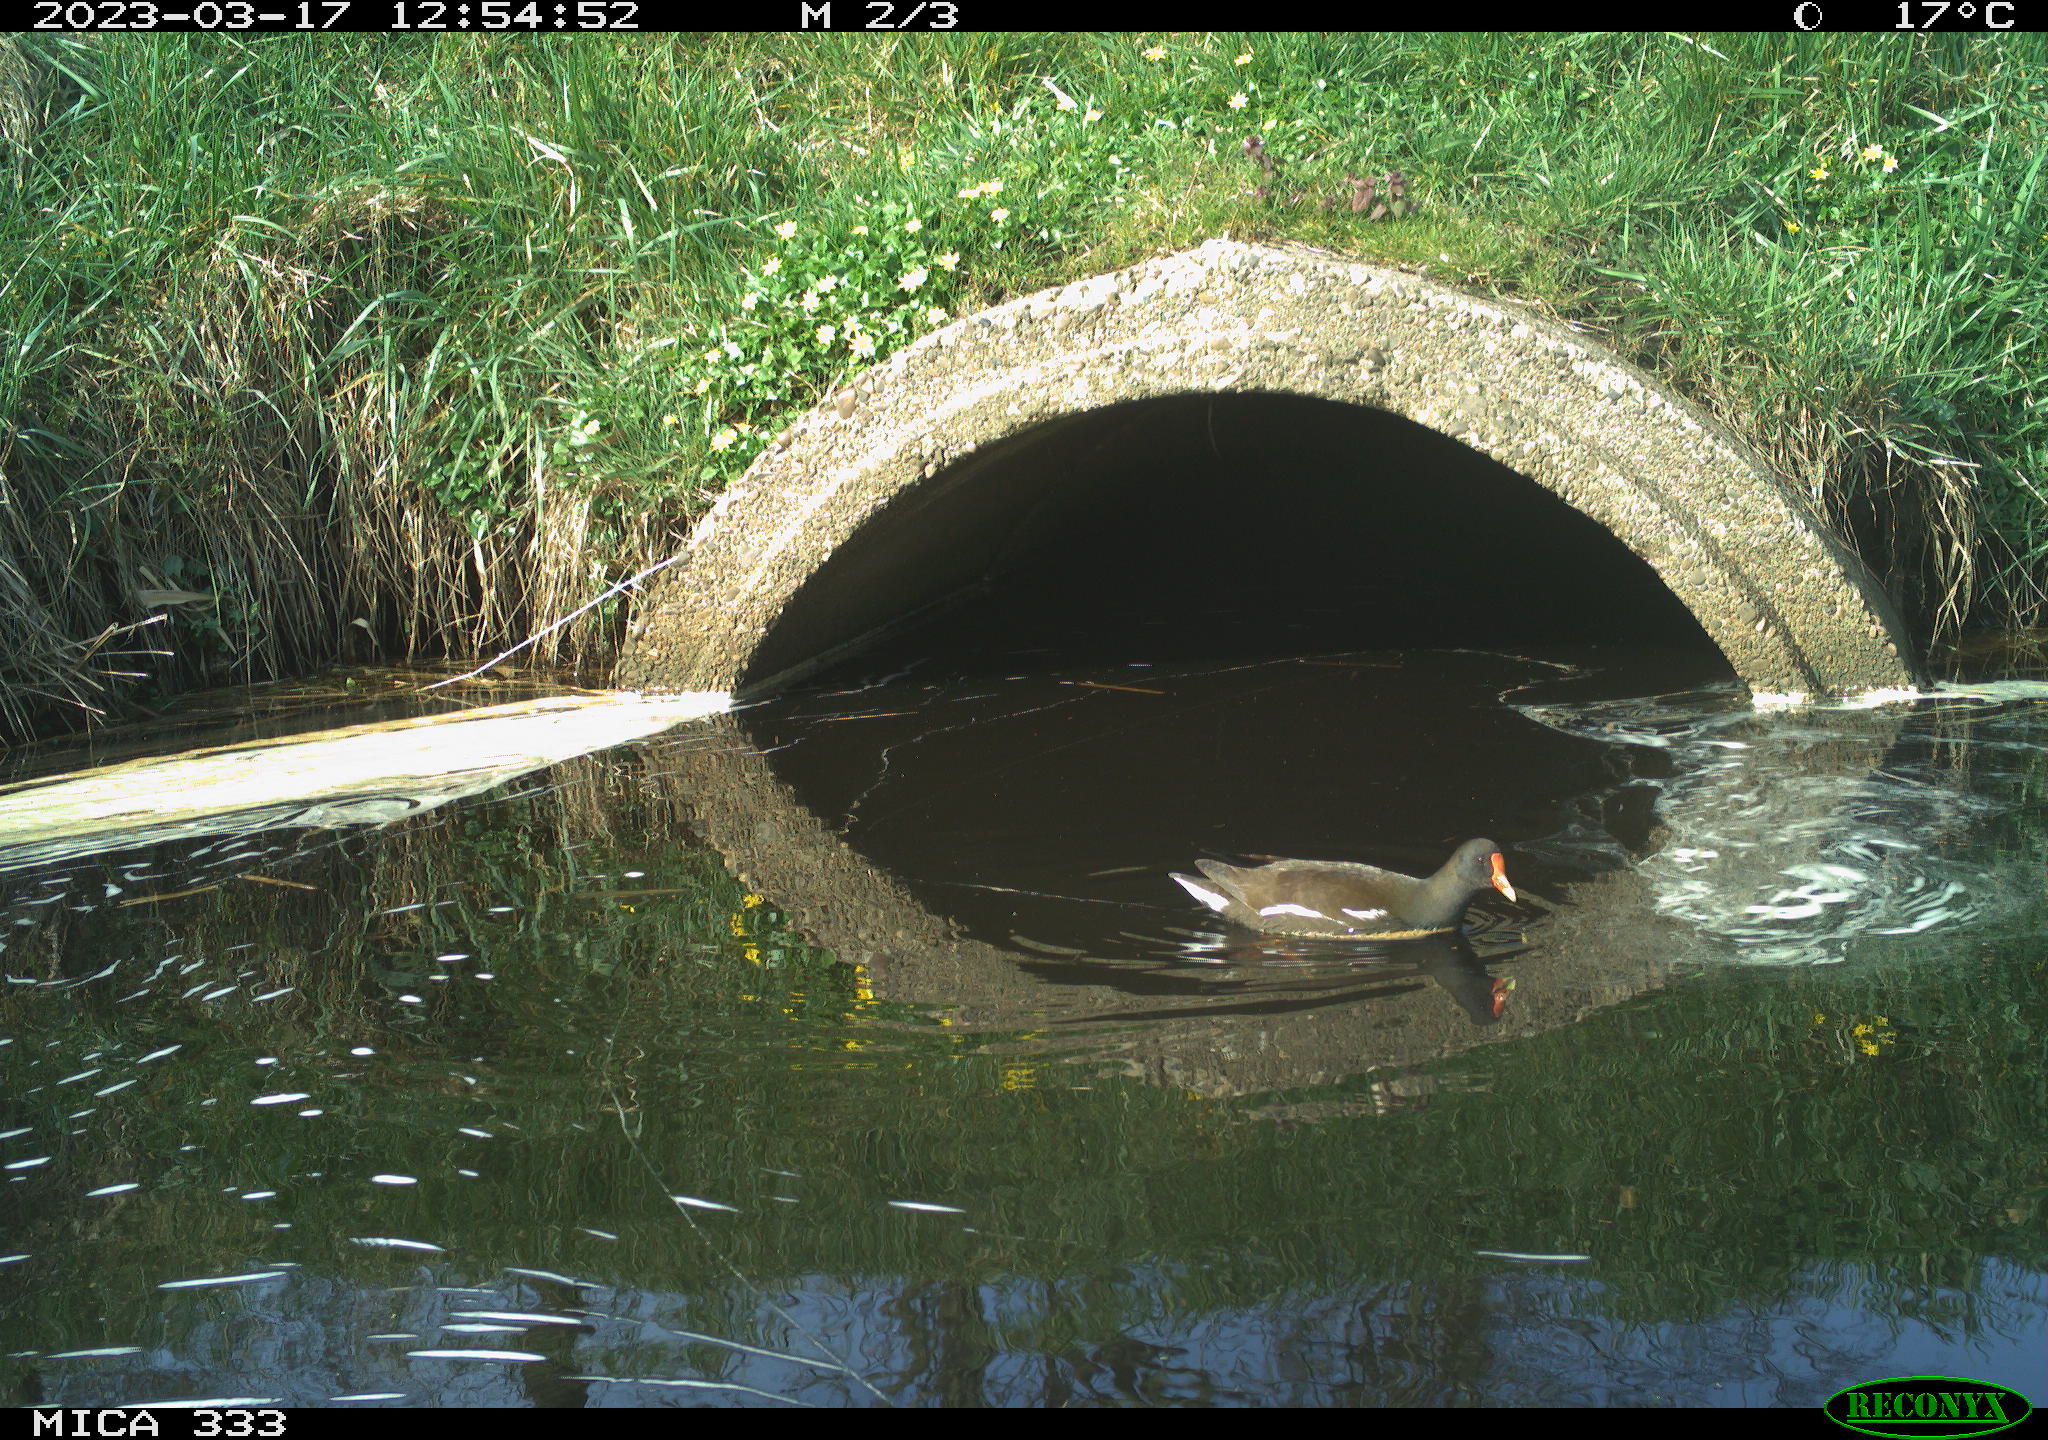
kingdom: Animalia
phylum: Chordata
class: Aves
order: Gruiformes
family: Rallidae
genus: Gallinula
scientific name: Gallinula chloropus
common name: Common moorhen
